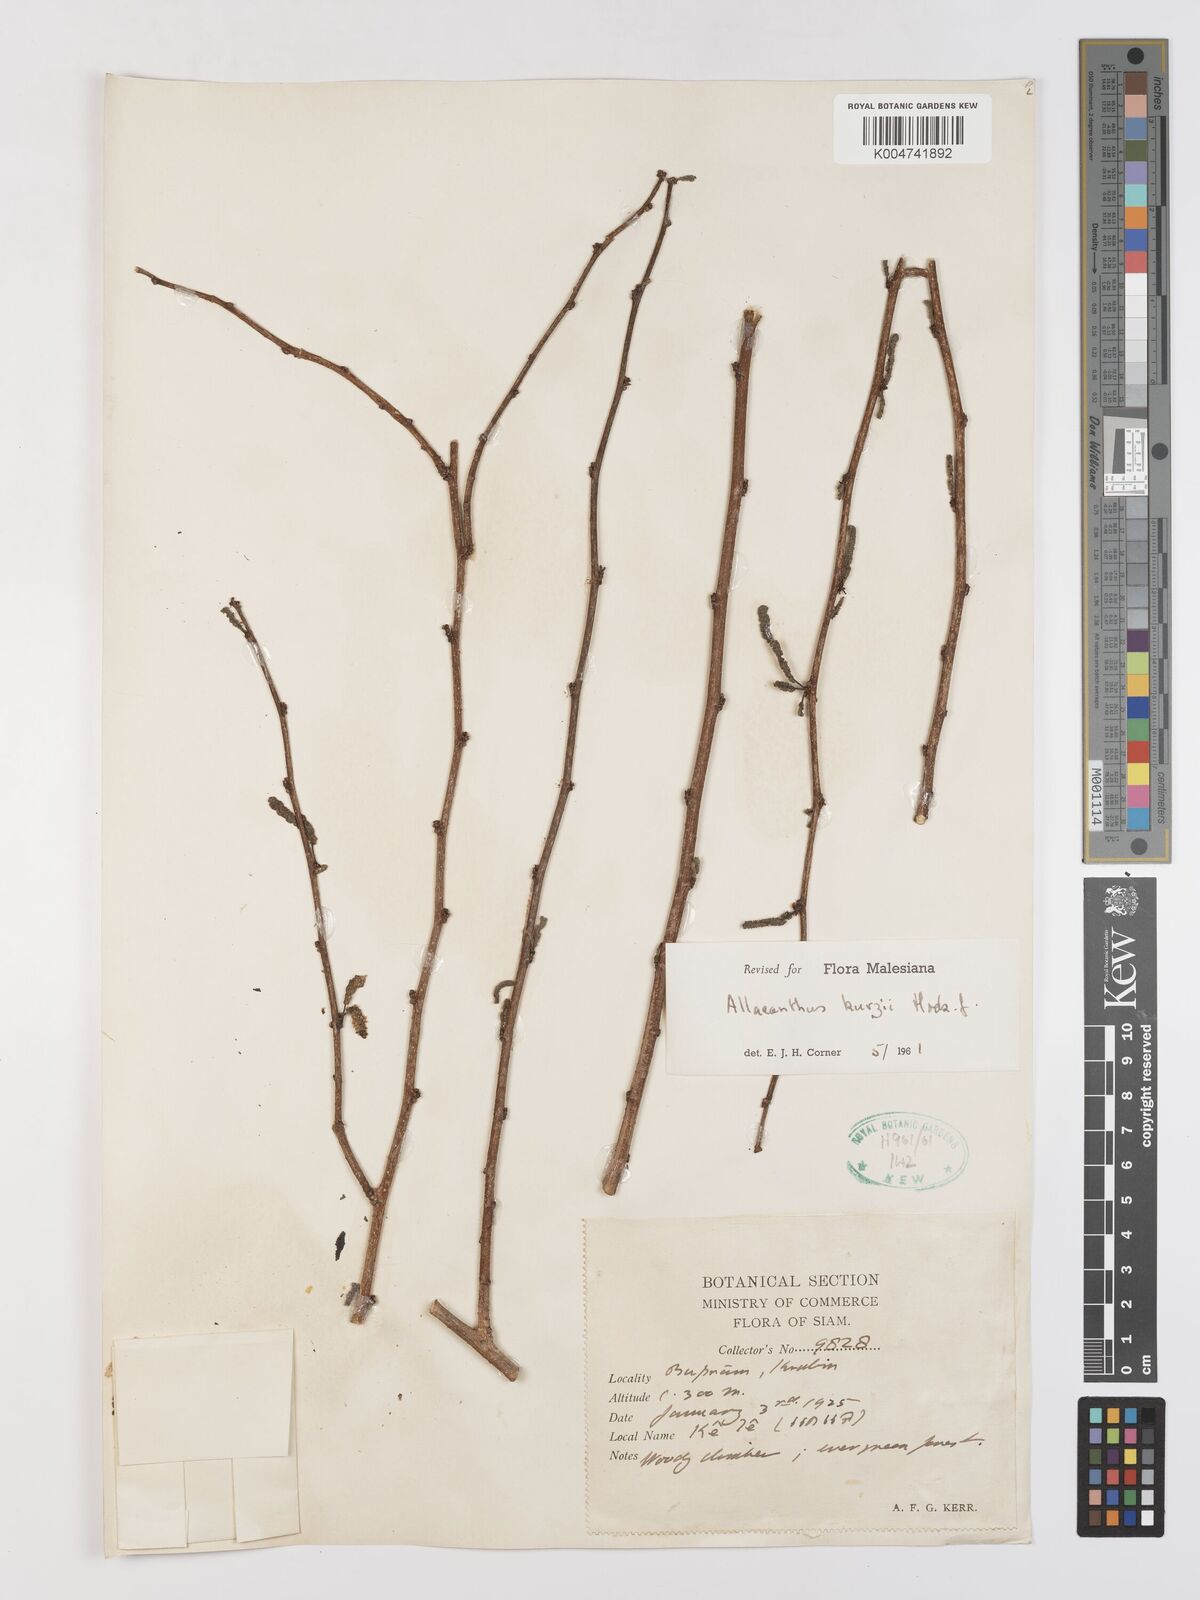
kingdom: Plantae
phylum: Tracheophyta
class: Magnoliopsida
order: Rosales
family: Moraceae
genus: Allaeanthus
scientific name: Allaeanthus kurzii
